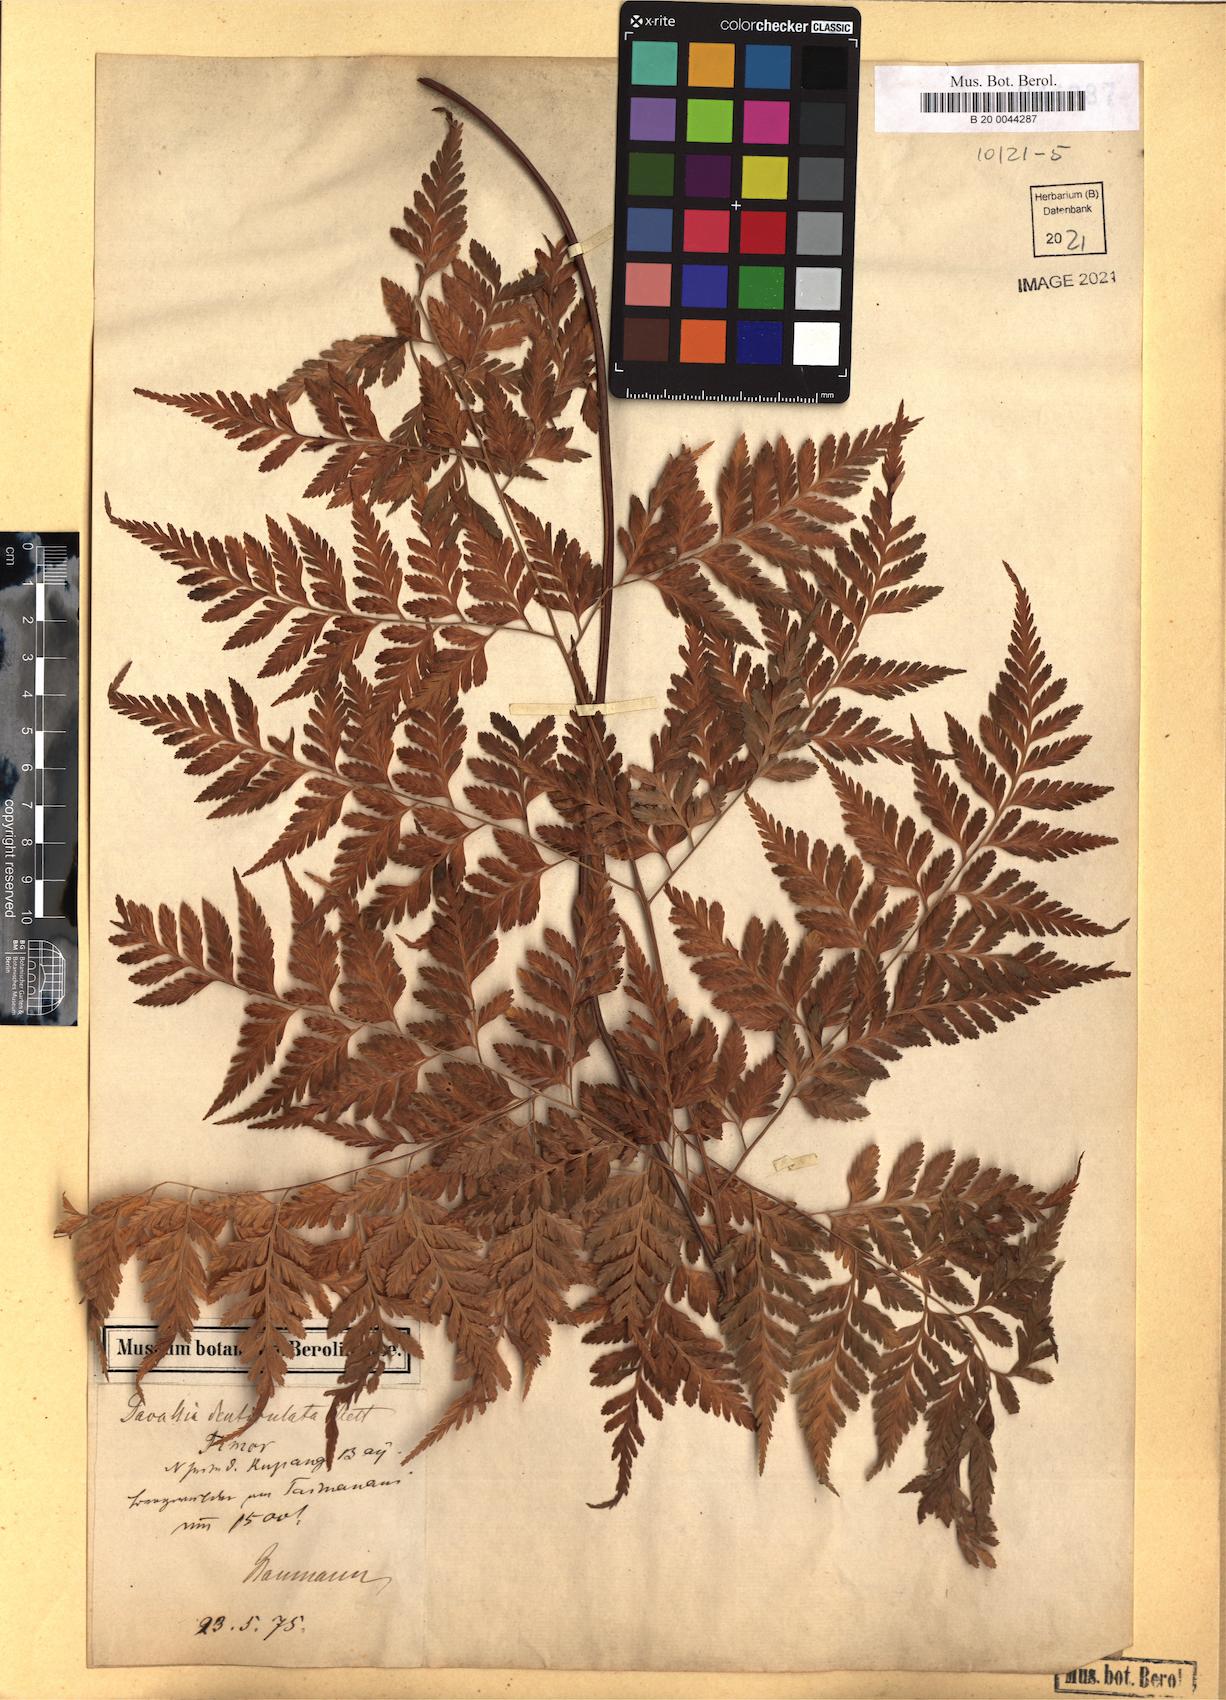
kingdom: Plantae
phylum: Tracheophyta
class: Polypodiopsida
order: Polypodiales
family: Davalliaceae
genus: Davallia
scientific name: Davallia denticulata
